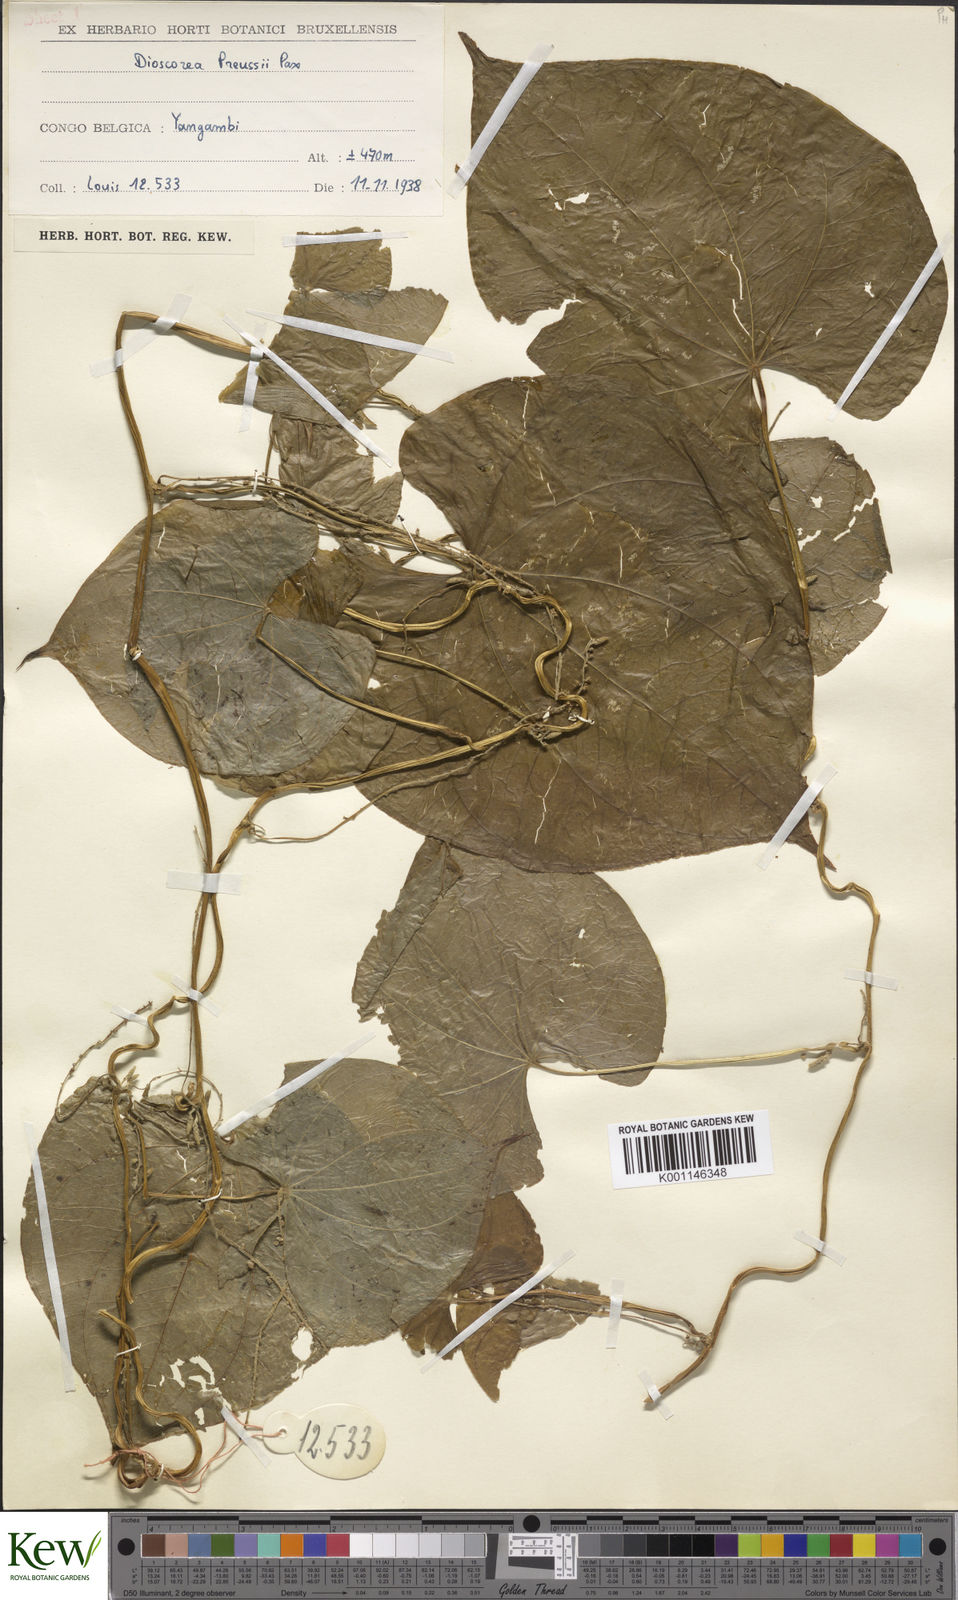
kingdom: Plantae
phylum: Tracheophyta
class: Liliopsida
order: Dioscoreales
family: Dioscoreaceae
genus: Dioscorea
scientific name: Dioscorea preussii
